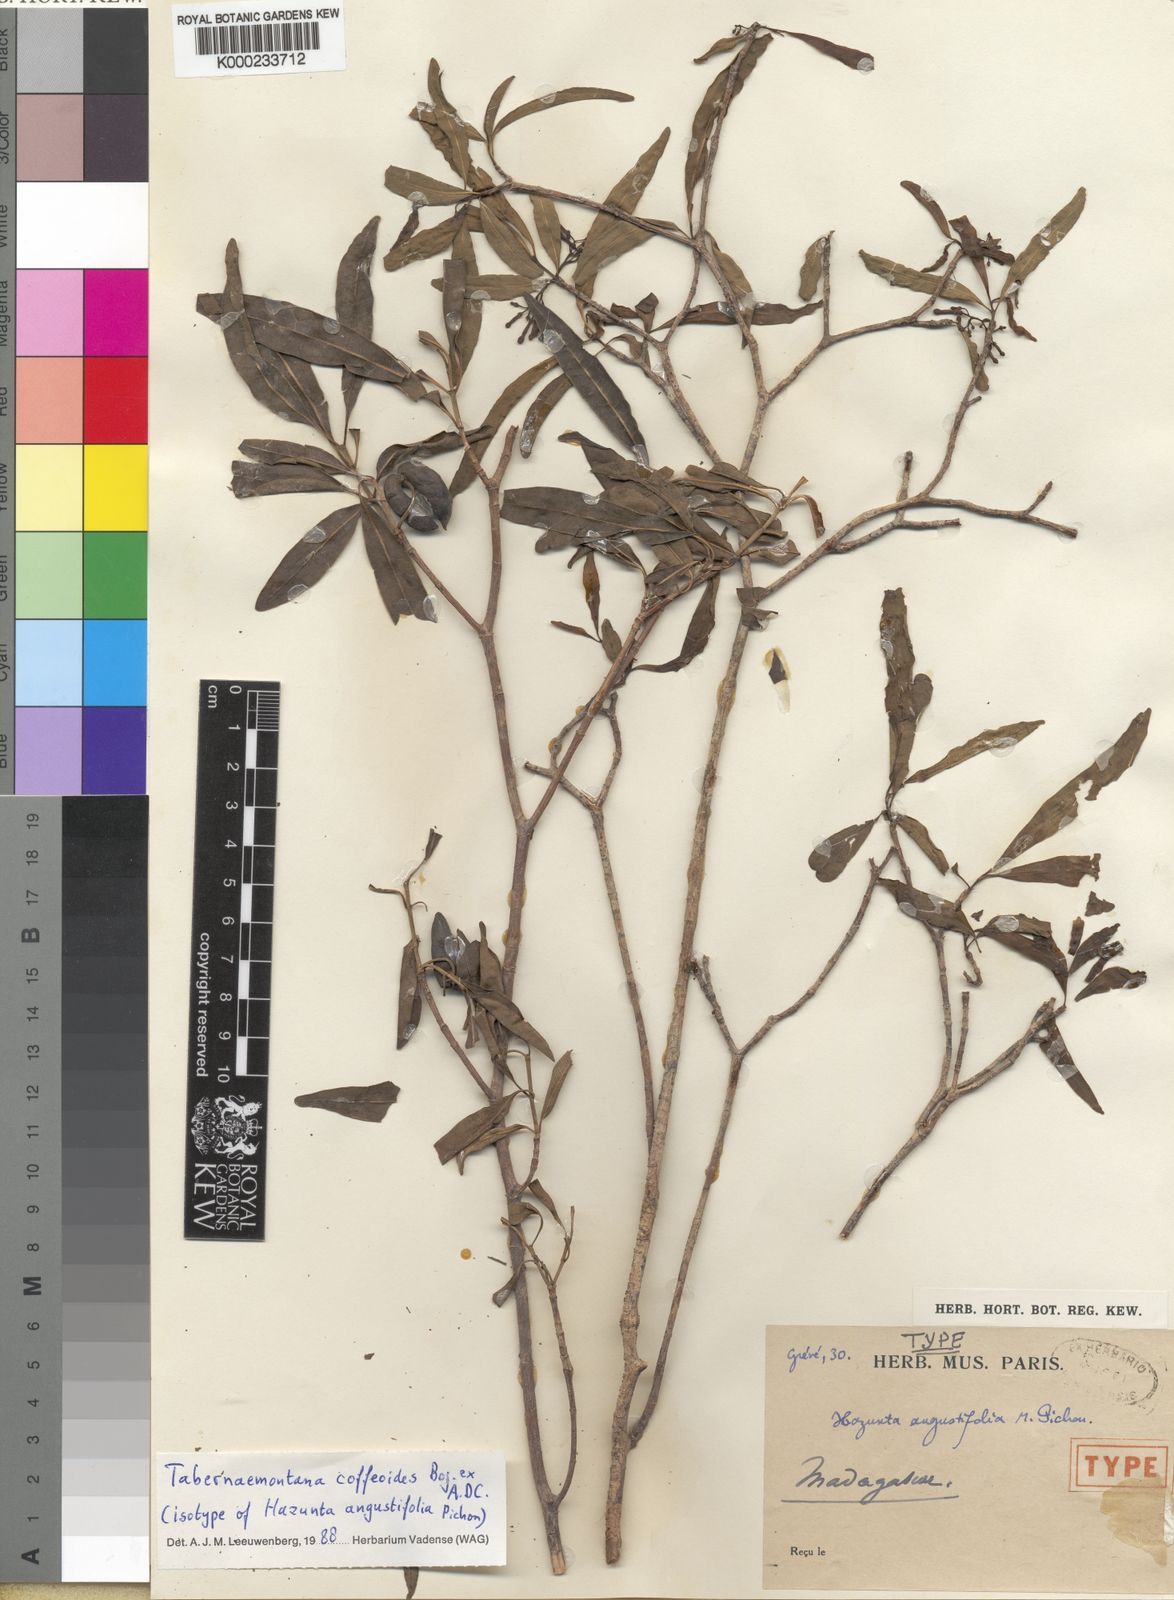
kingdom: Plantae
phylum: Tracheophyta
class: Magnoliopsida
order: Gentianales
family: Apocynaceae
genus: Tabernaemontana
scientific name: Tabernaemontana coffeoides
